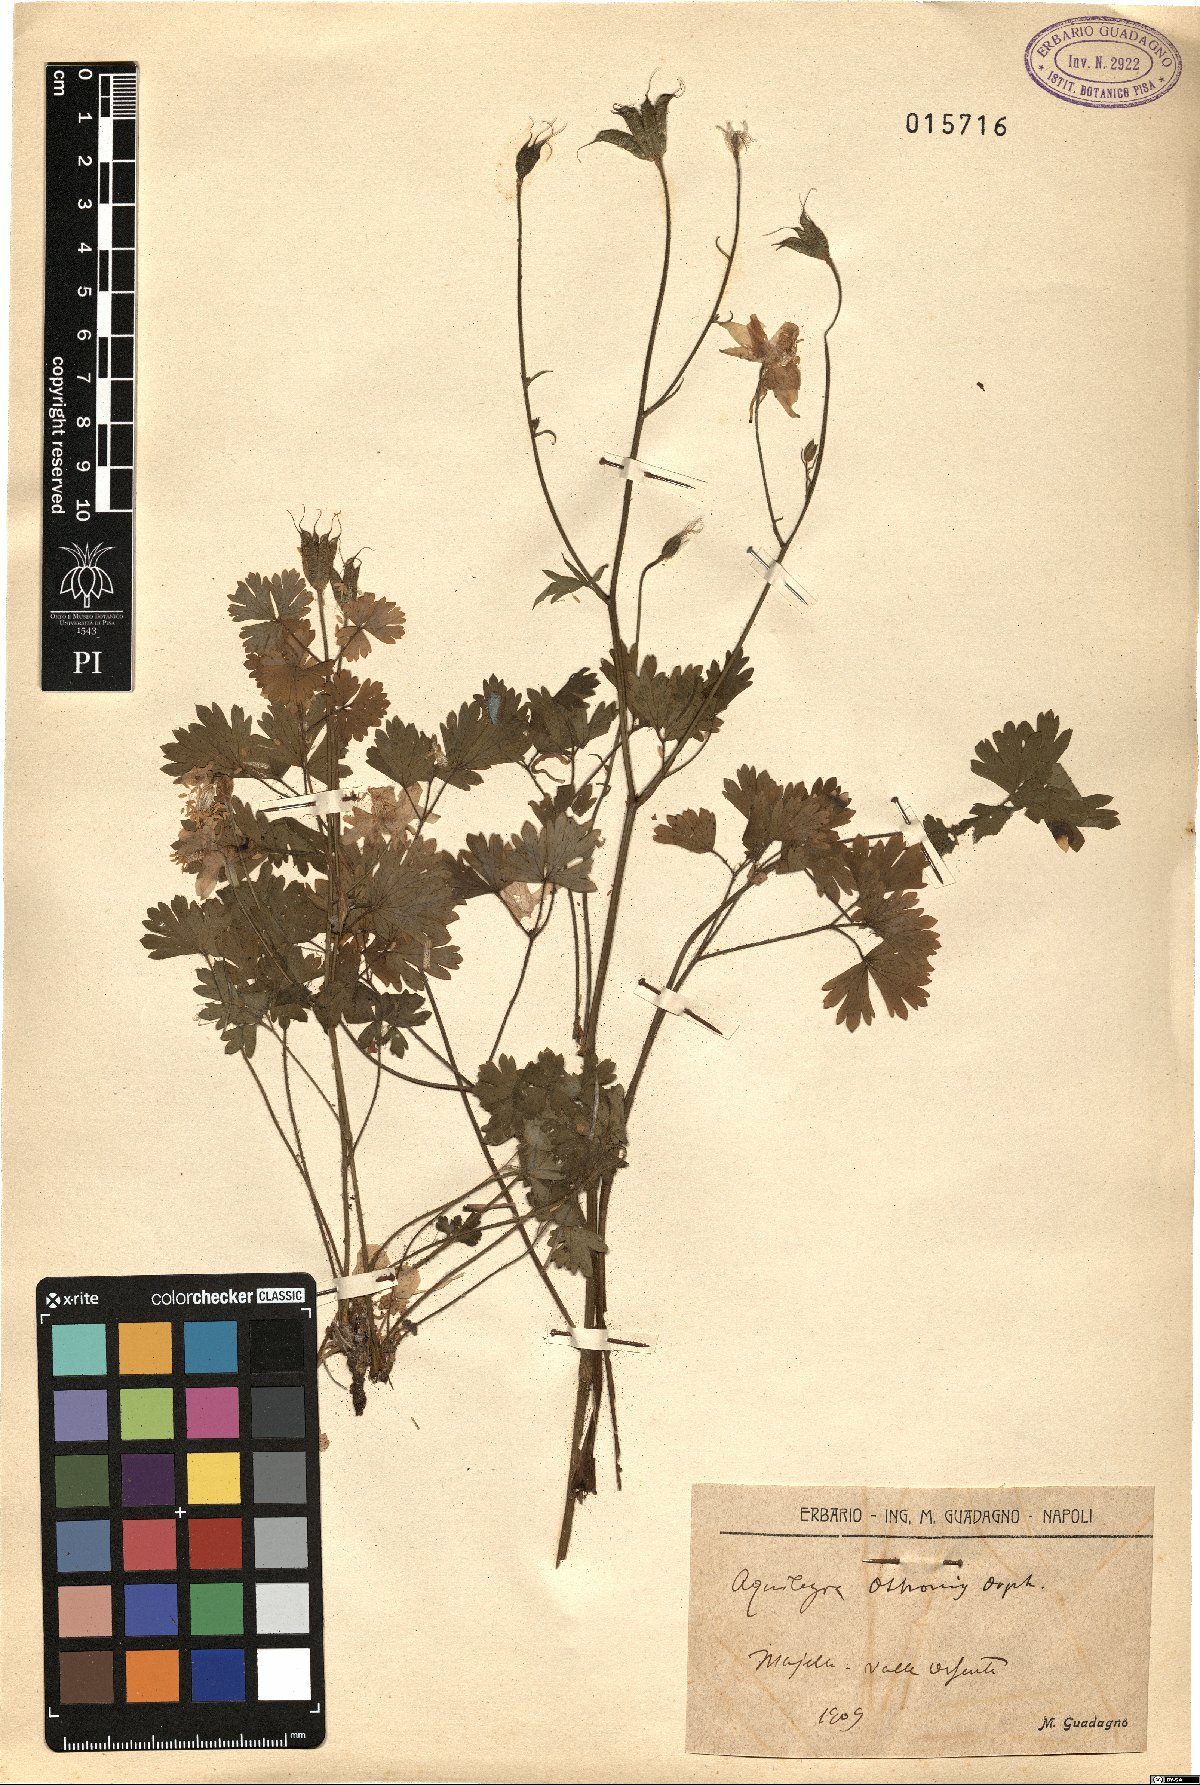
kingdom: Plantae
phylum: Tracheophyta
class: Magnoliopsida
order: Ranunculales
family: Ranunculaceae
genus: Aquilegia
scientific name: Aquilegia magellensis
